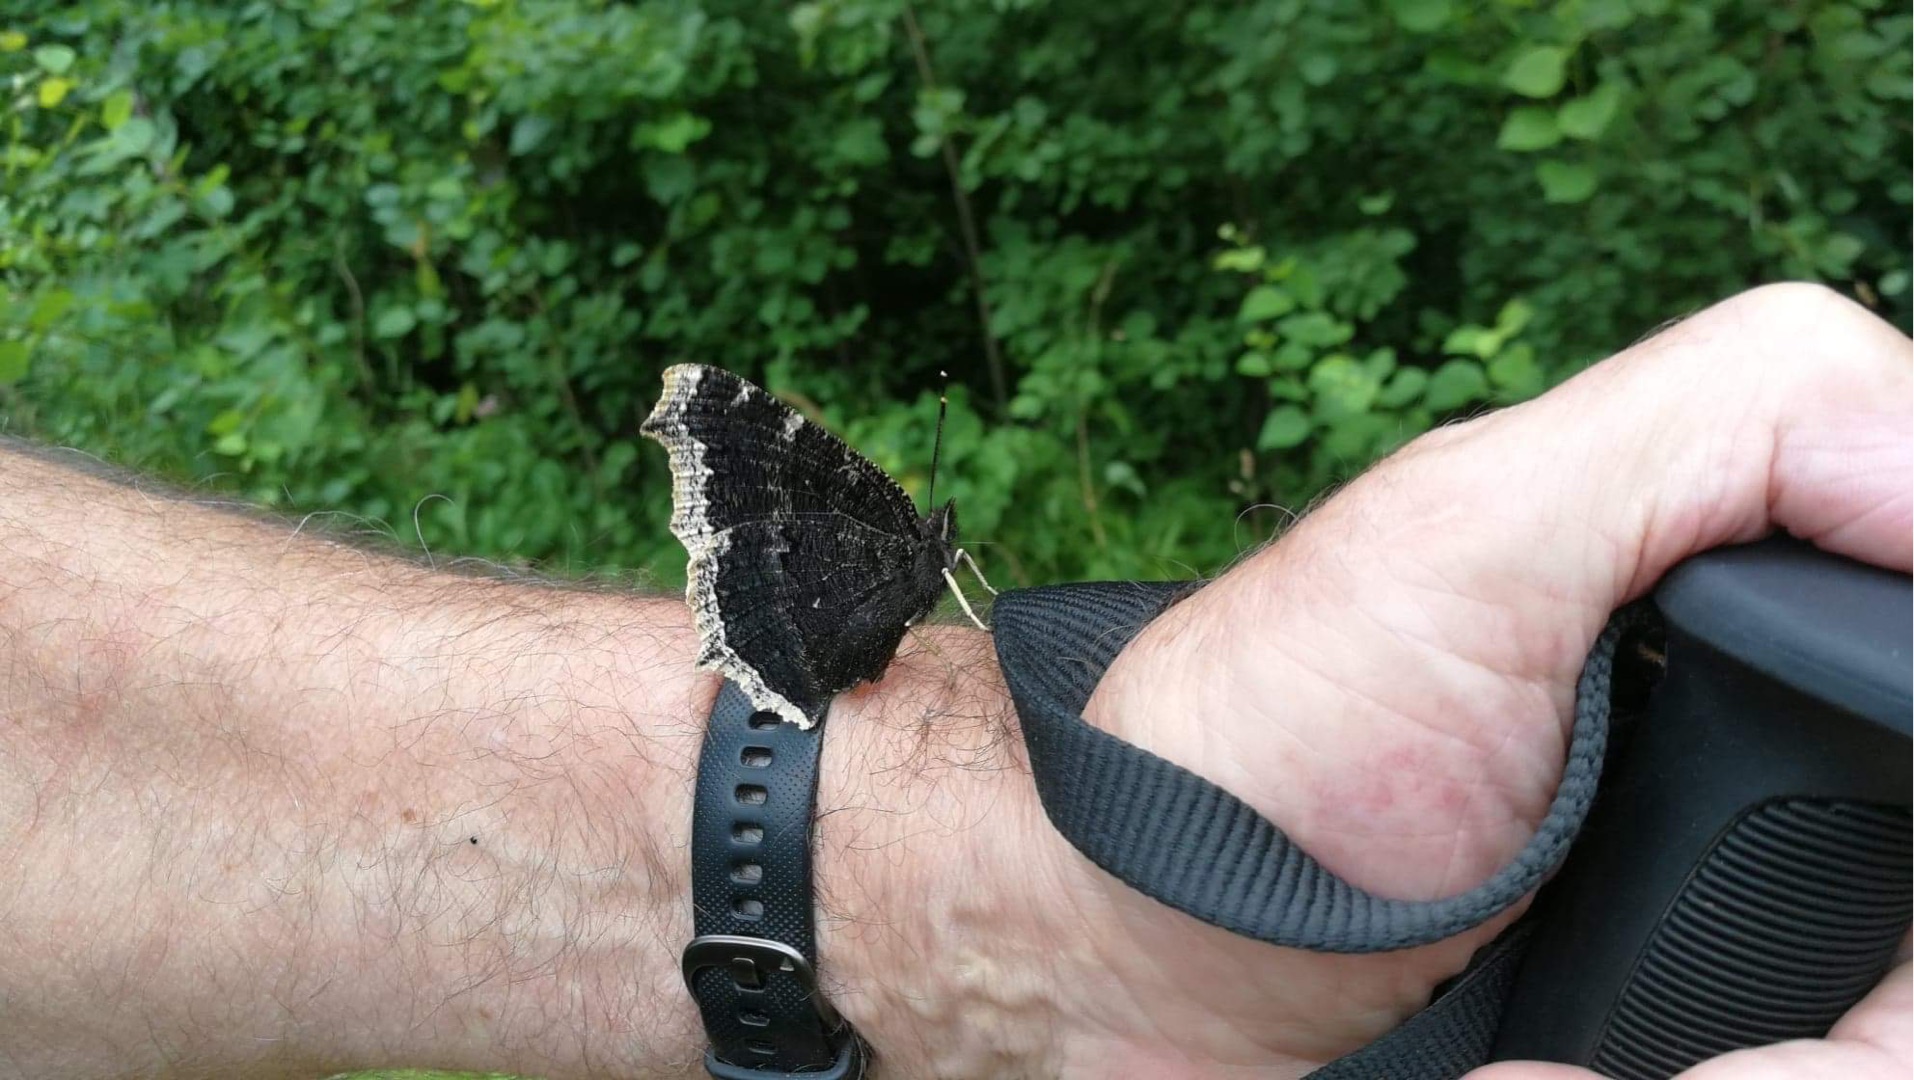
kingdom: Animalia
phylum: Arthropoda
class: Insecta
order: Lepidoptera
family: Nymphalidae
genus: Nymphalis
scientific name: Nymphalis antiopa
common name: Sørgekåbe
